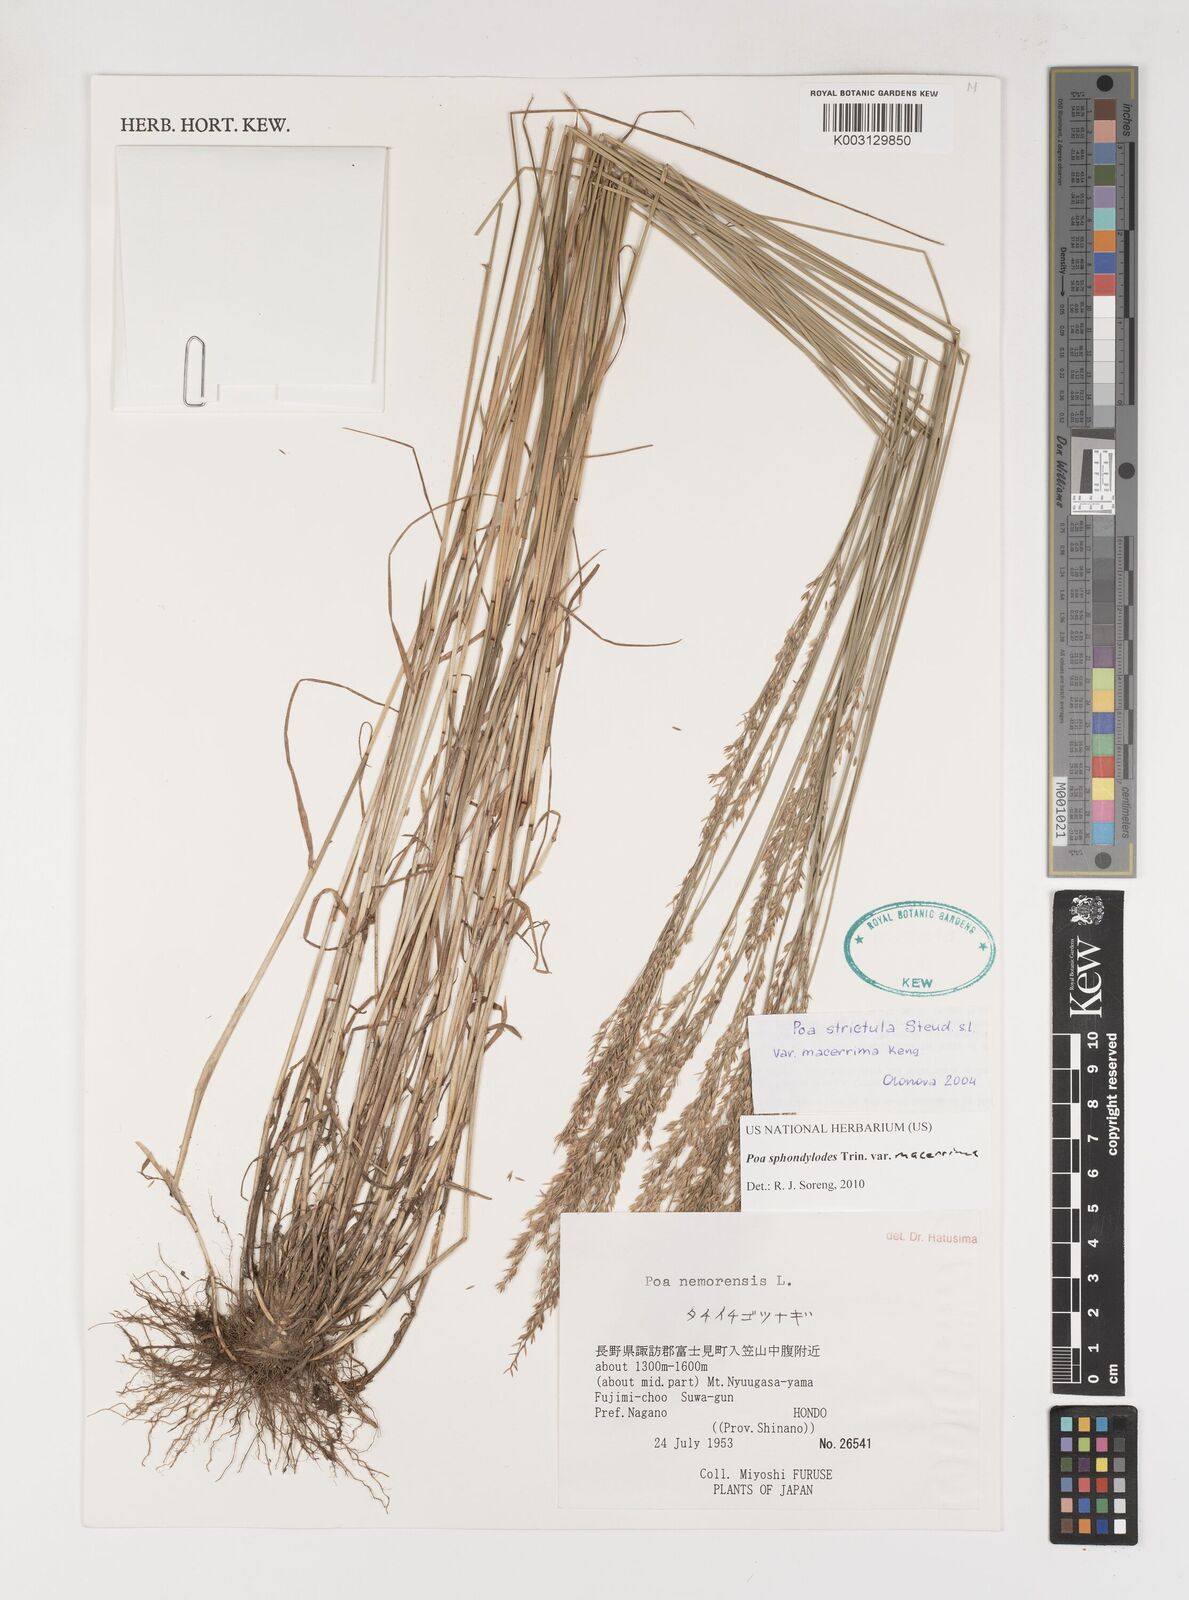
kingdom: Plantae
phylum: Tracheophyta
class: Liliopsida
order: Poales
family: Poaceae
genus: Poa
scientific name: Poa sphondylodes
